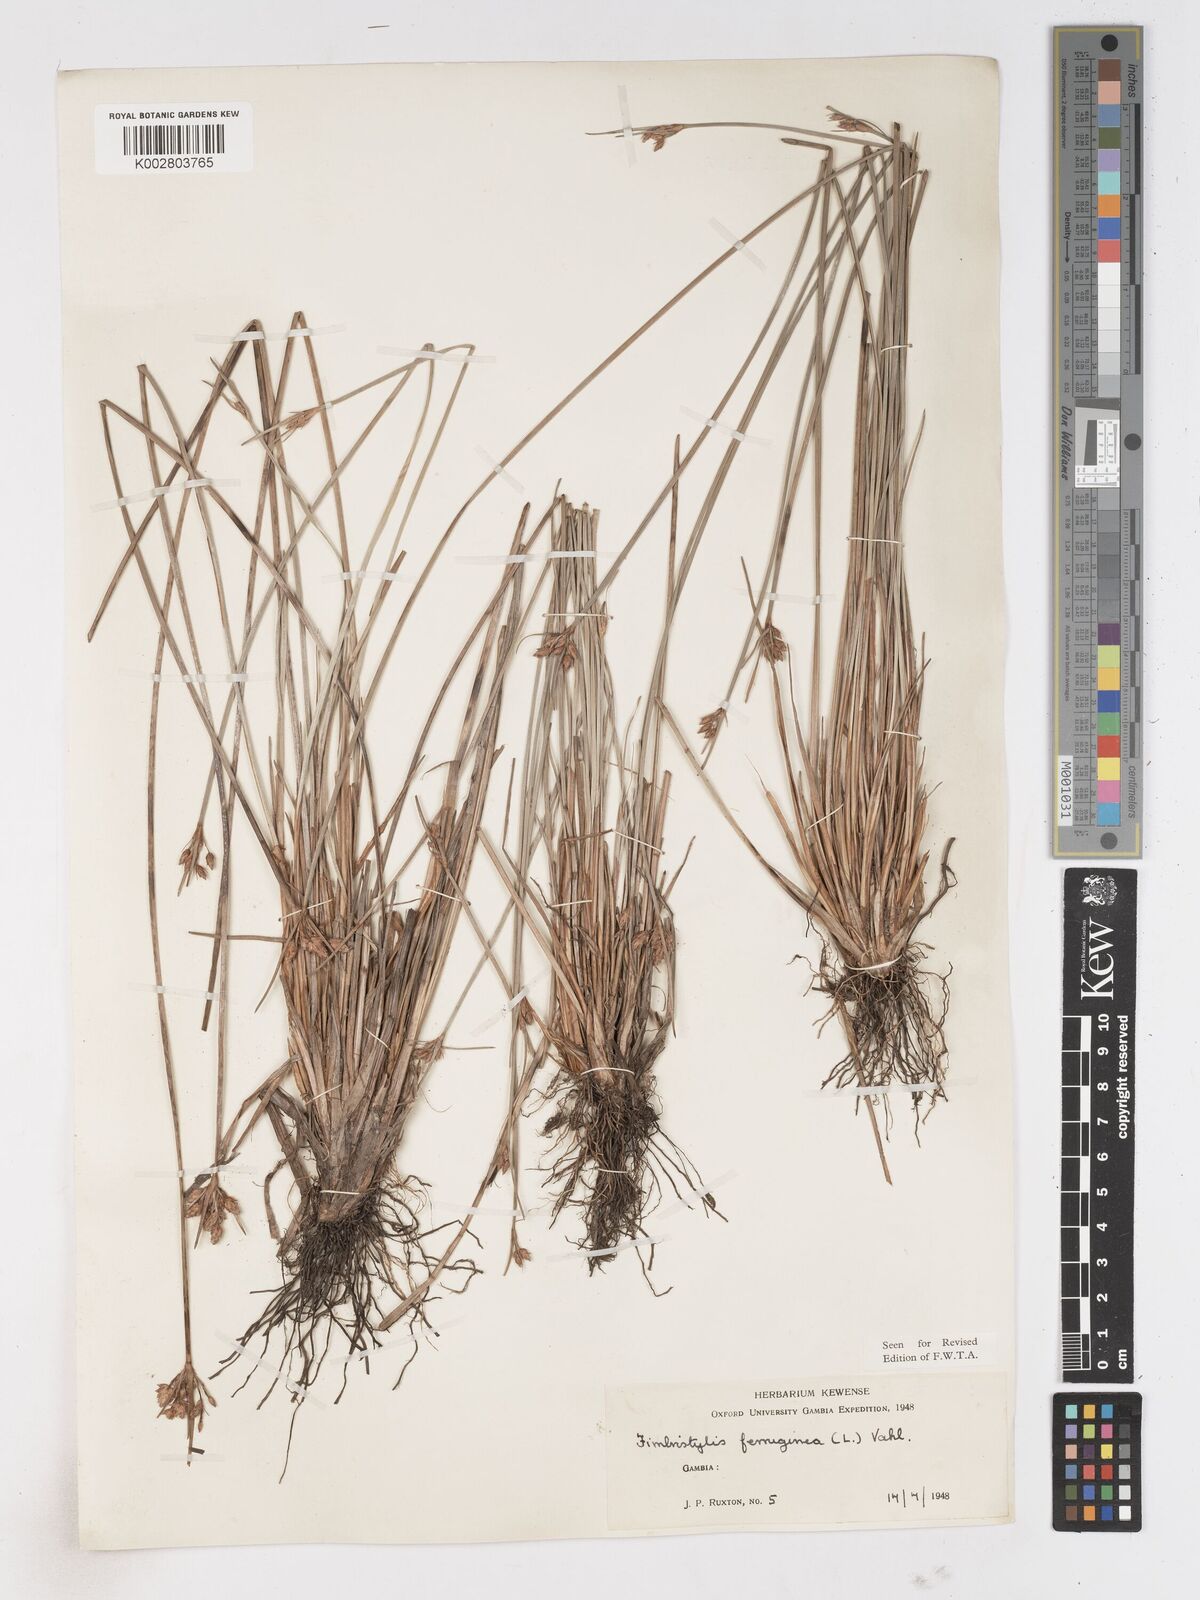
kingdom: Plantae
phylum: Tracheophyta
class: Liliopsida
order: Poales
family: Cyperaceae
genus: Fimbristylis
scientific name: Fimbristylis ferruginea
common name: West indian fimbry
